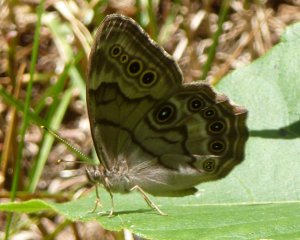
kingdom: Animalia
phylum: Arthropoda
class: Insecta
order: Lepidoptera
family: Nymphalidae
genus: Lethe
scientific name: Lethe anthedon
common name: Northern Pearly-Eye
